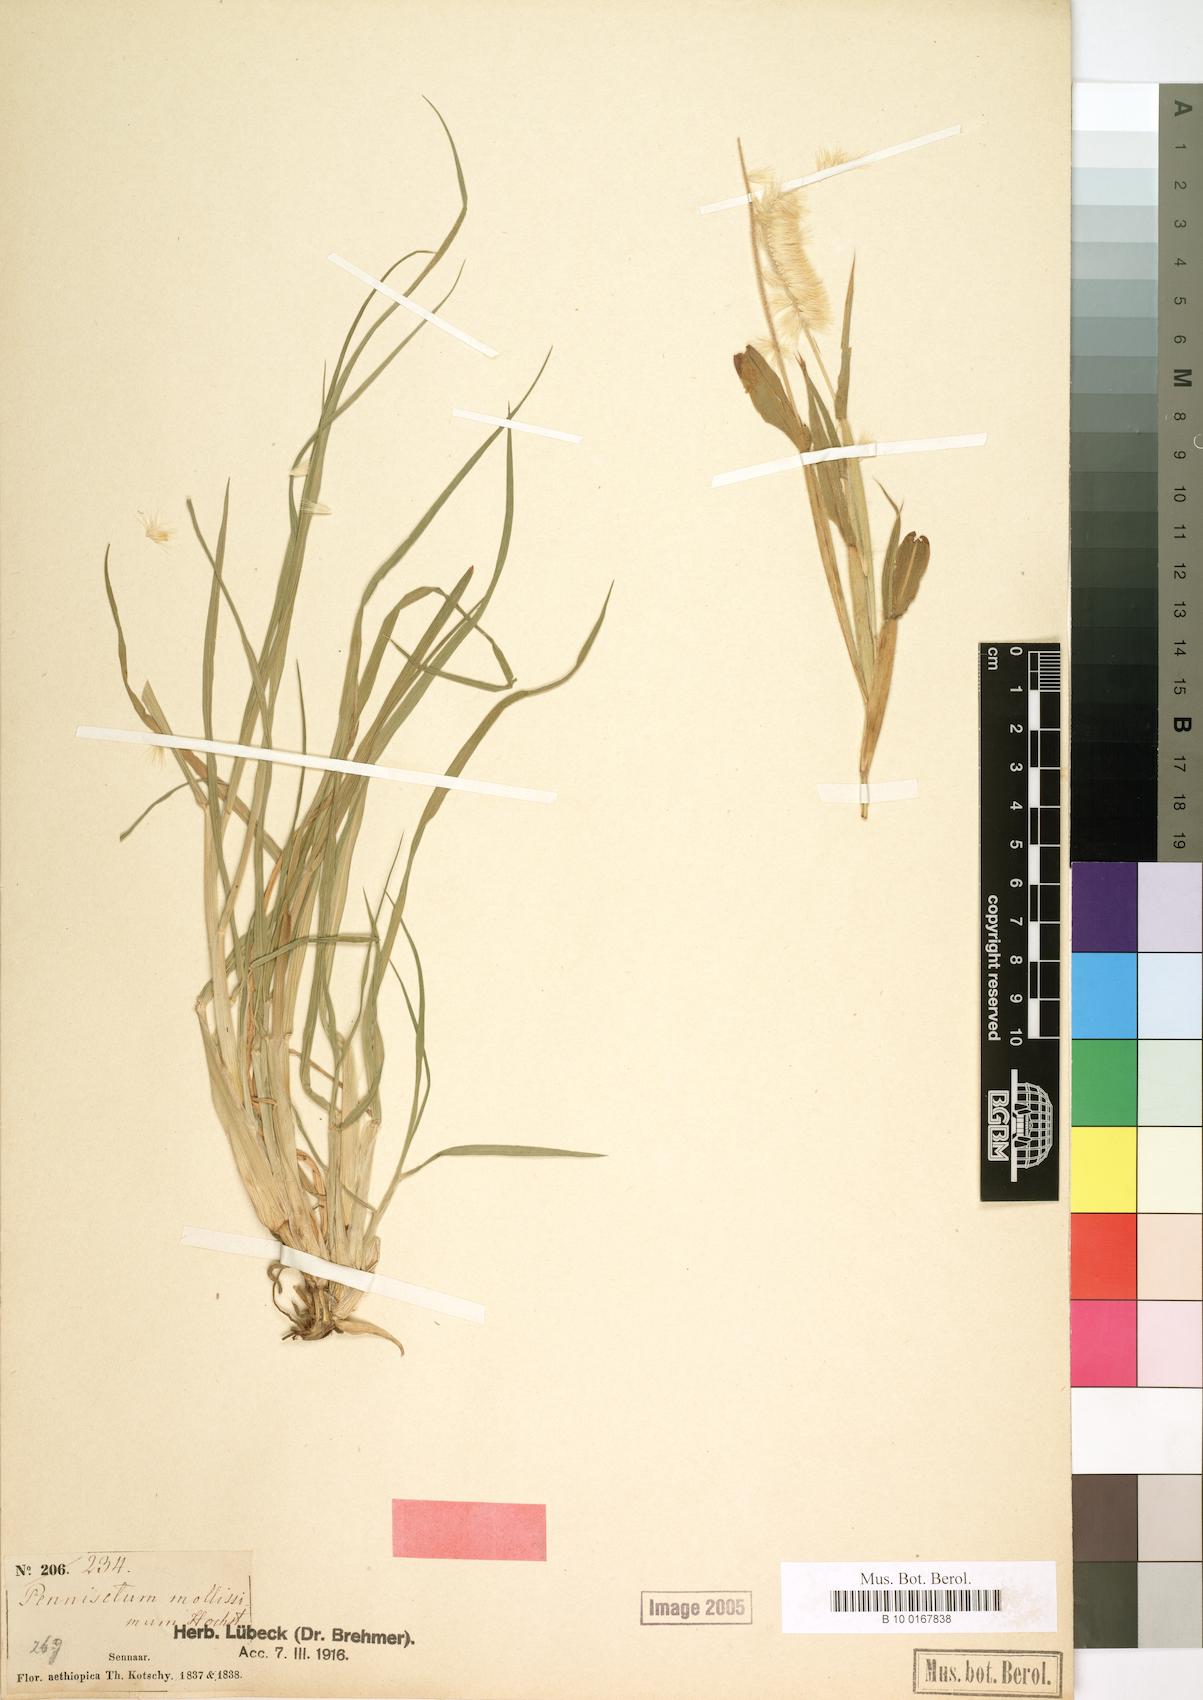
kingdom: Plantae
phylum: Tracheophyta
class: Liliopsida
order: Poales
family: Poaceae
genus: Cenchrus
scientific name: Cenchrus violaceus
